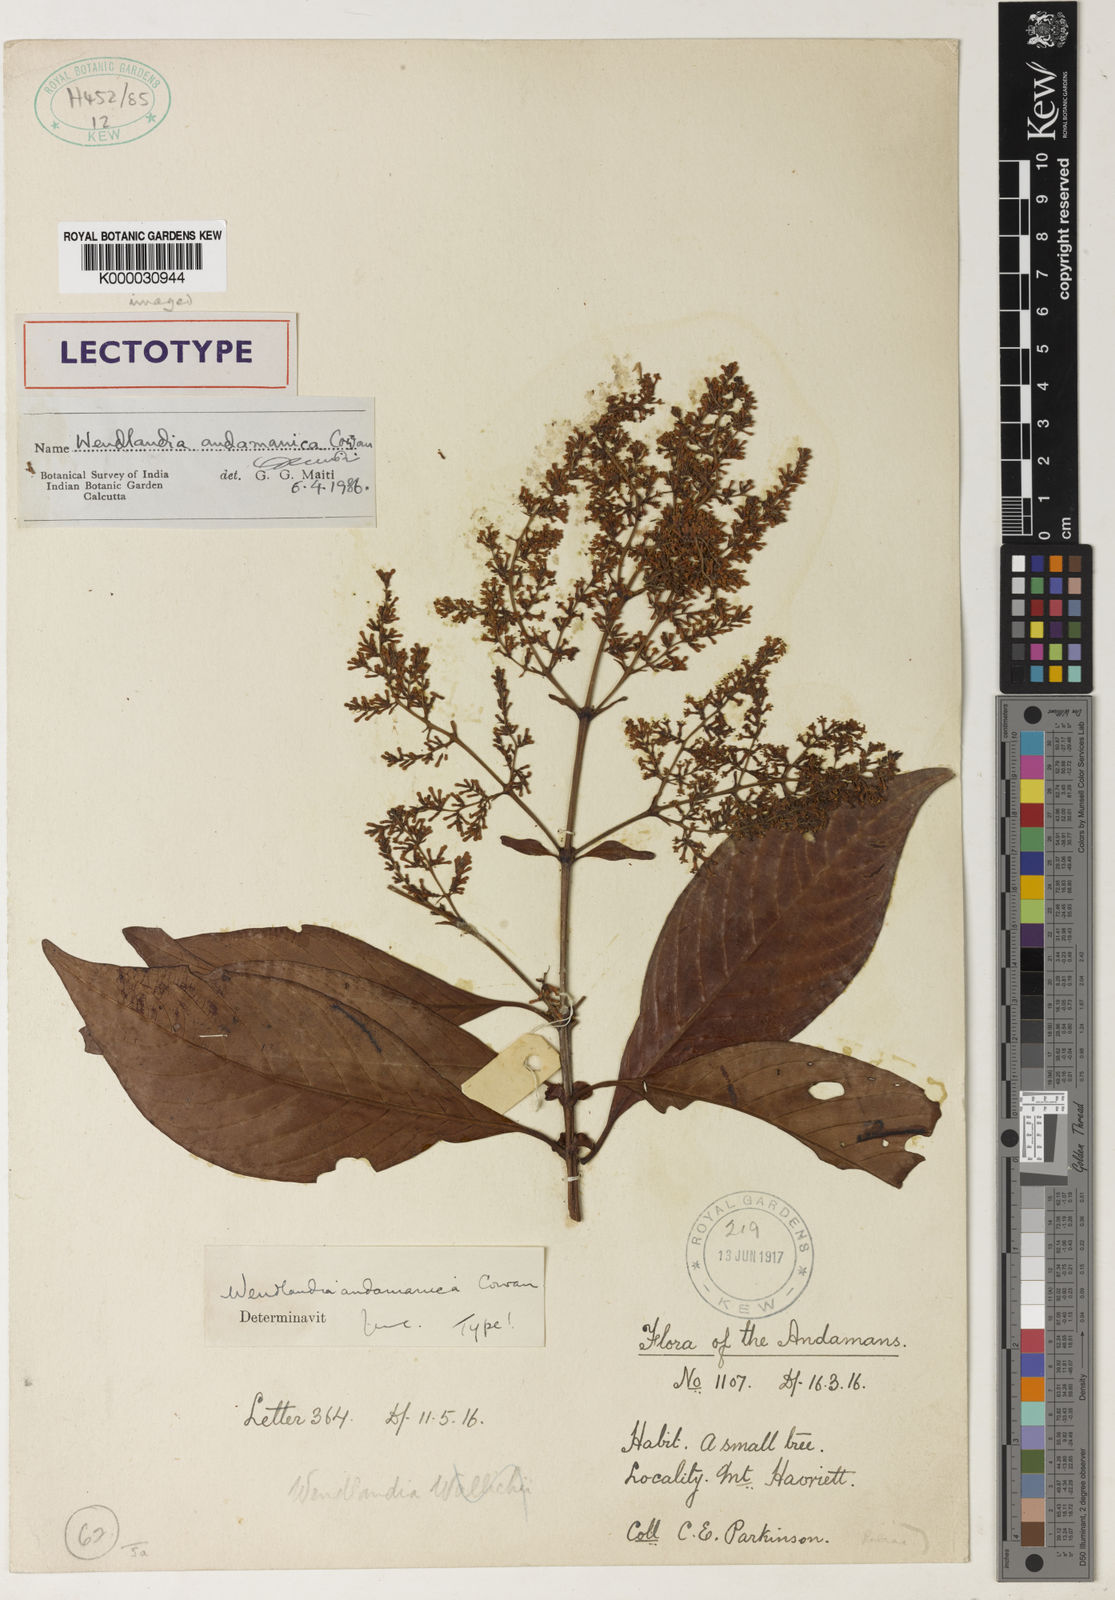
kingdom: Plantae
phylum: Tracheophyta
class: Magnoliopsida
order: Gentianales
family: Rubiaceae
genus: Wendlandia
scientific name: Wendlandia andamanica
